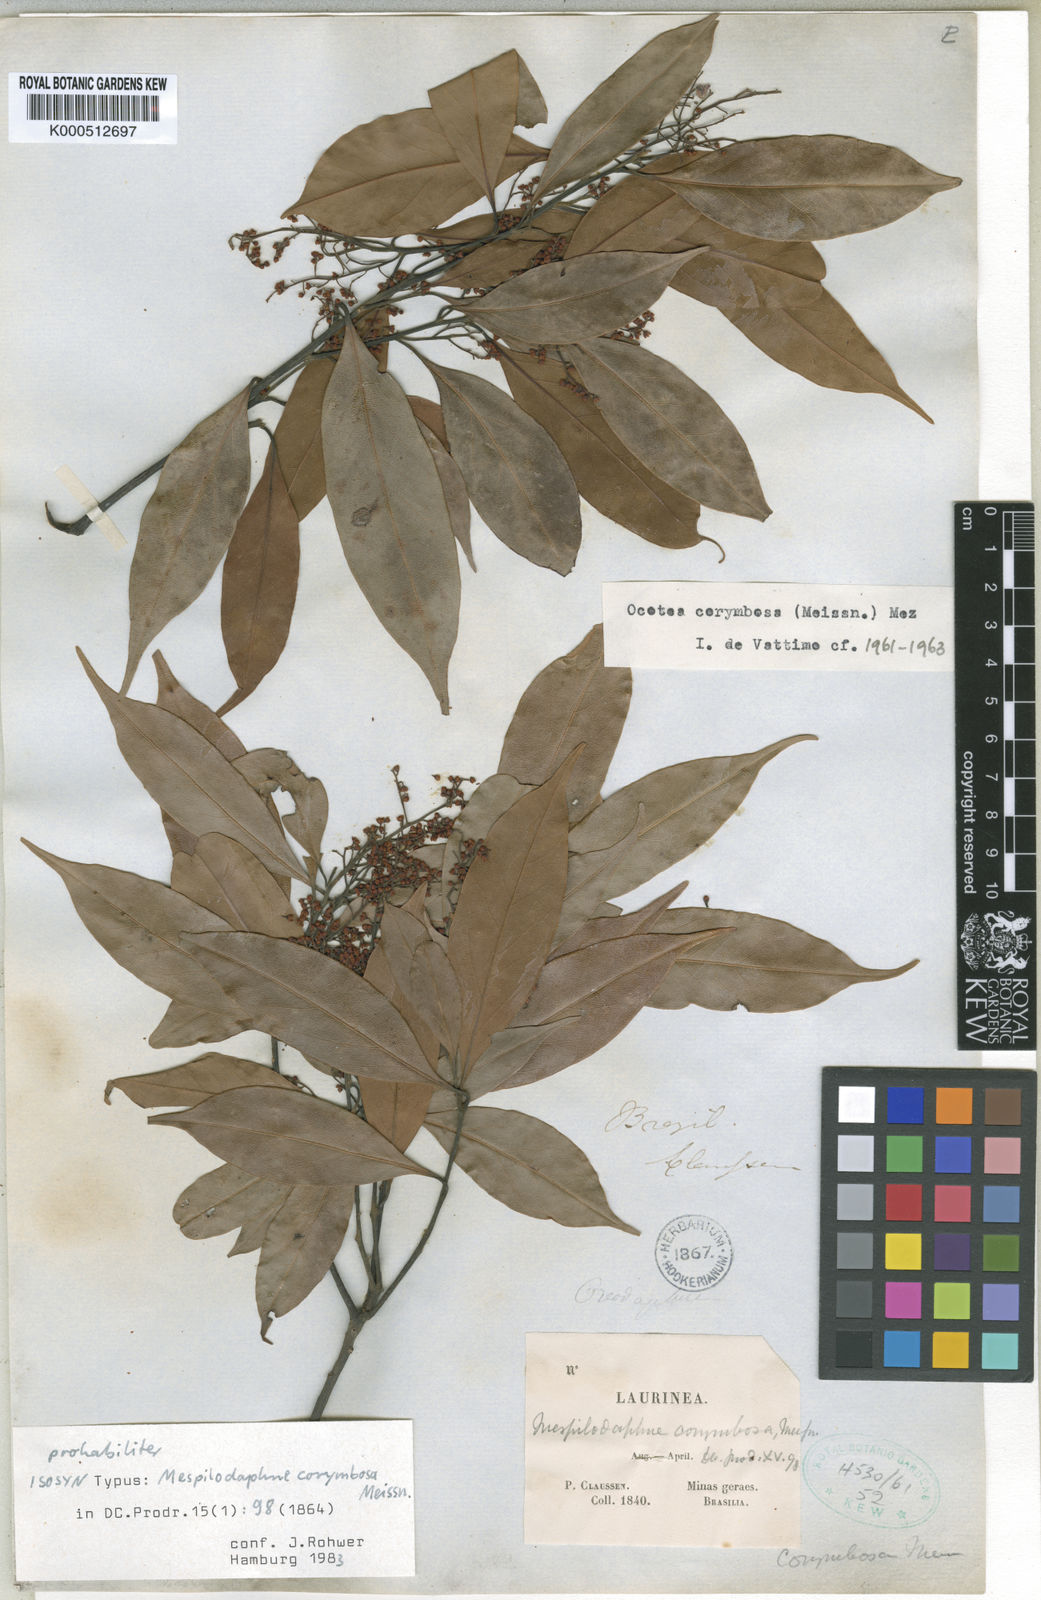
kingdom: Plantae
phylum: Tracheophyta
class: Magnoliopsida
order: Laurales
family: Lauraceae
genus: Mespilodaphne
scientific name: Mespilodaphne corymbosa
